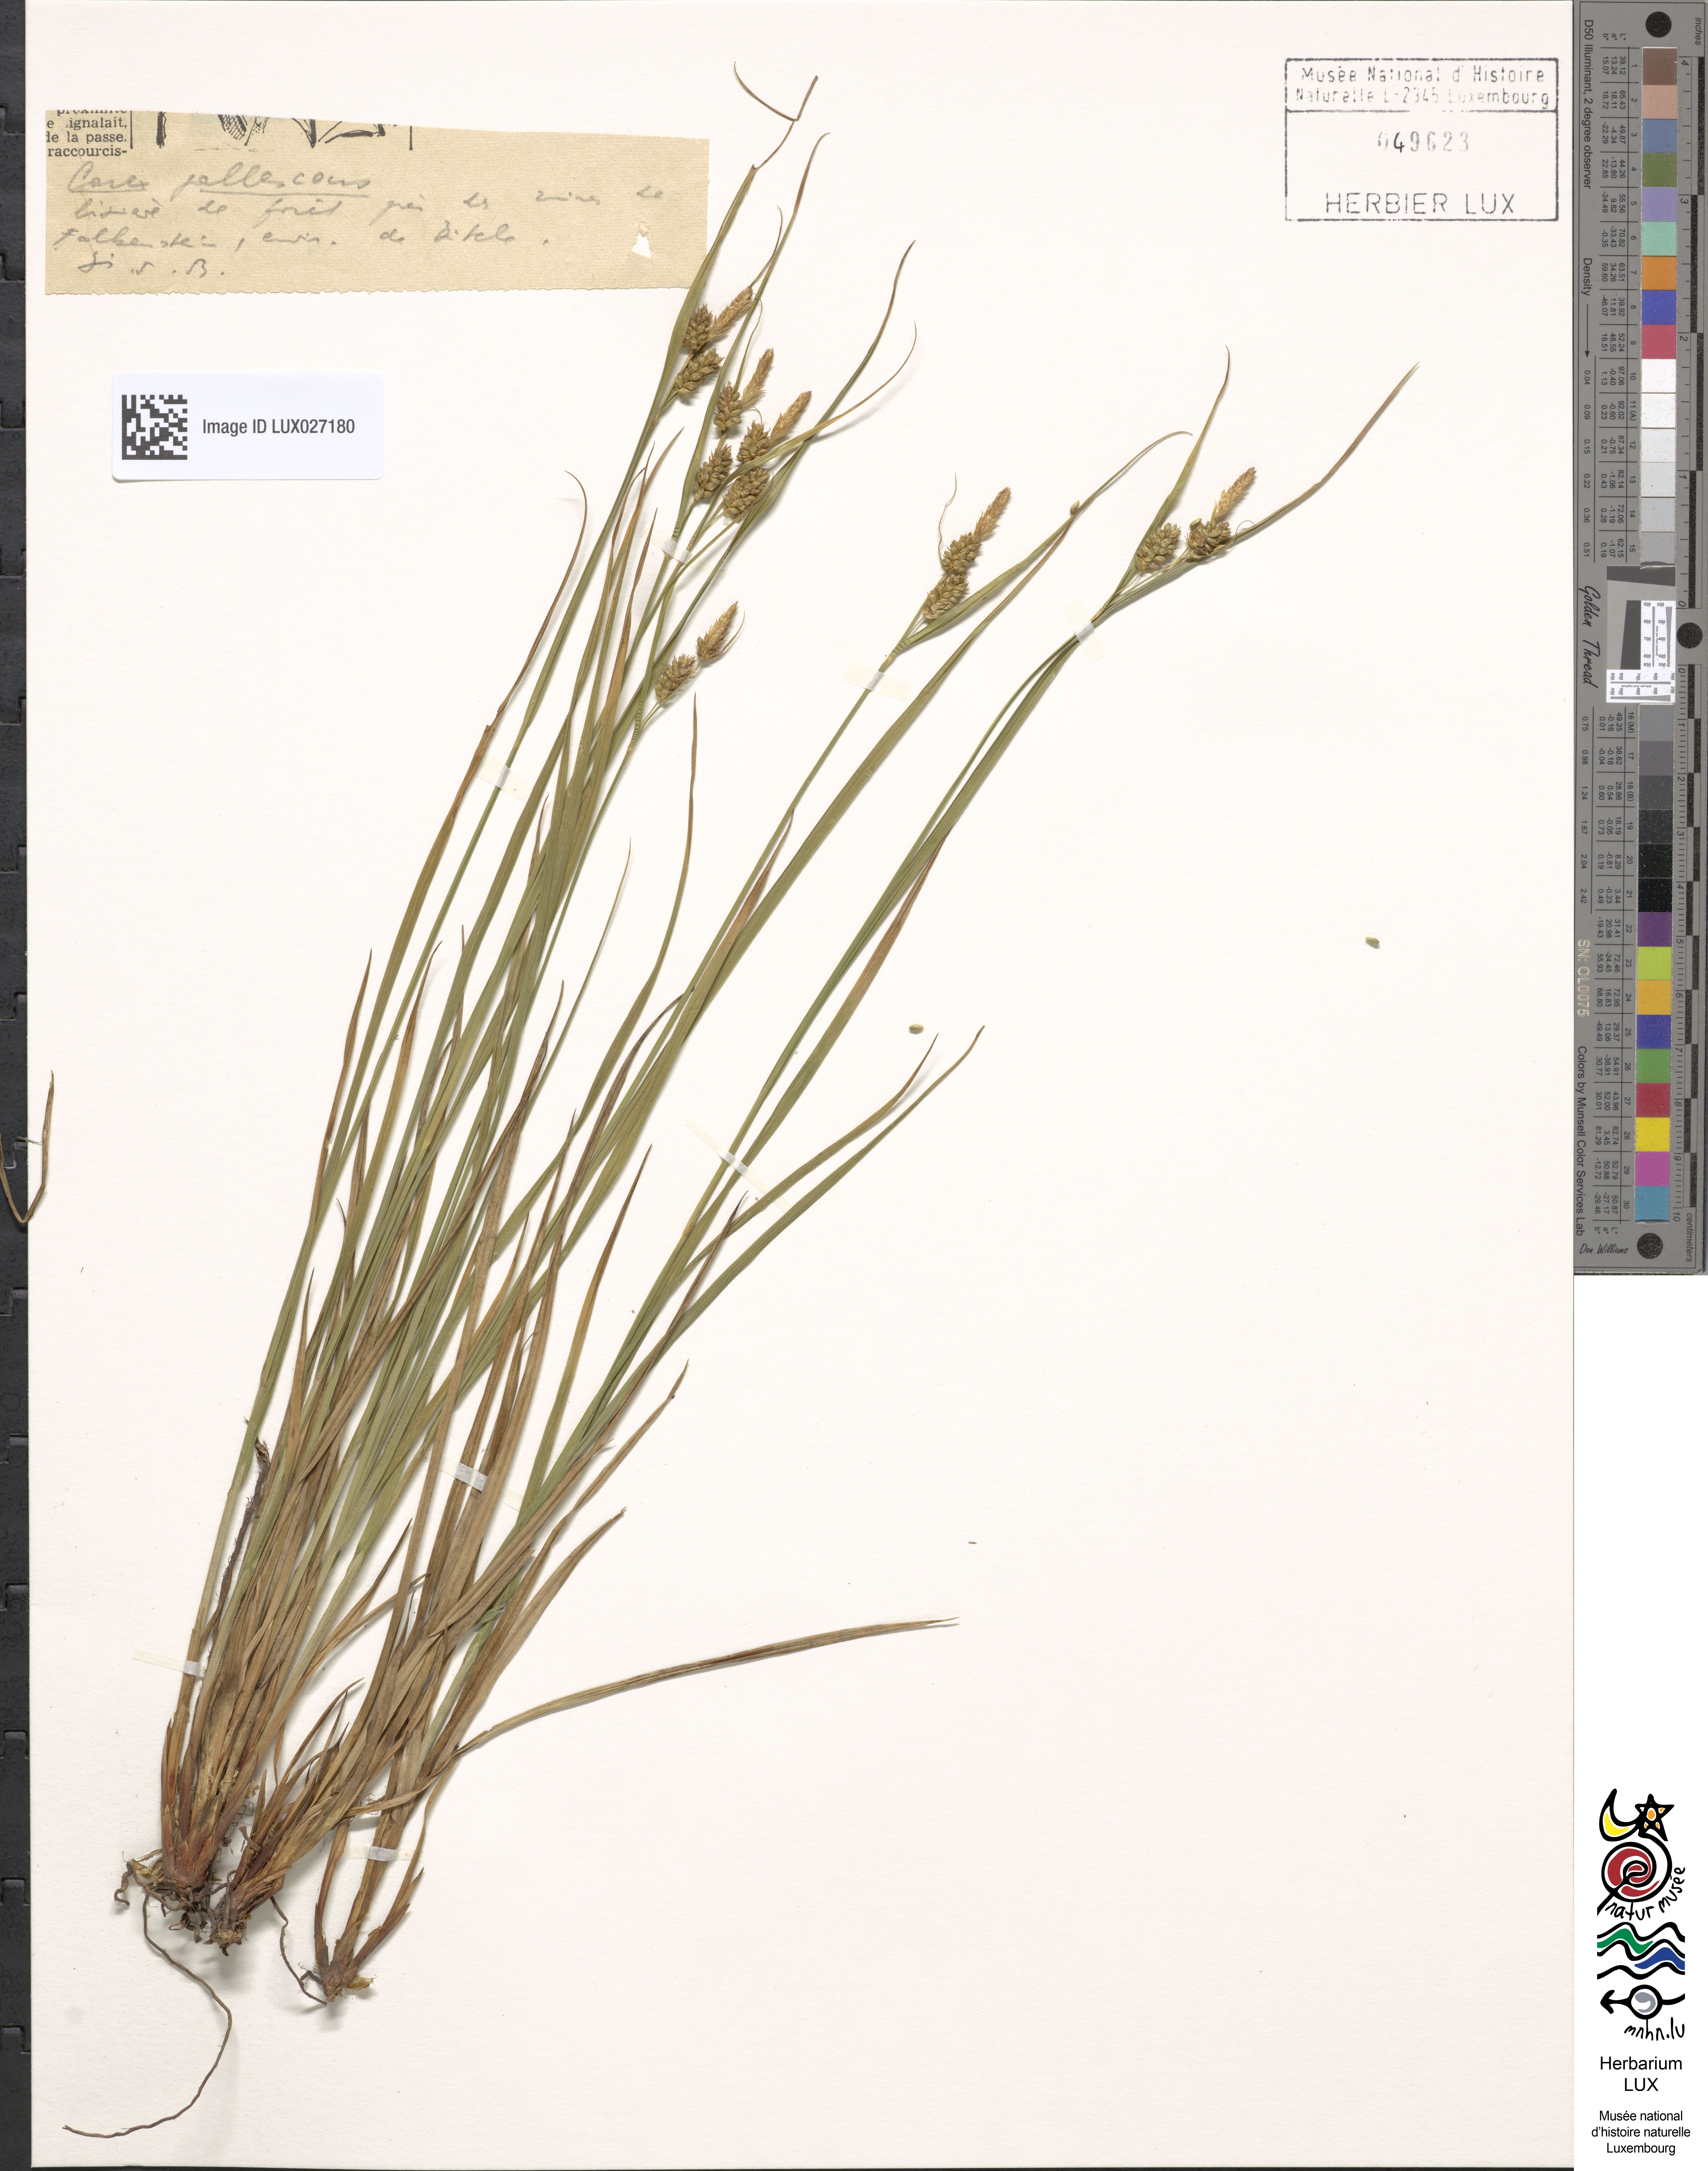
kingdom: Plantae
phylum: Tracheophyta
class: Liliopsida
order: Poales
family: Cyperaceae
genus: Carex
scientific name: Carex pallescens
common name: Pale sedge
